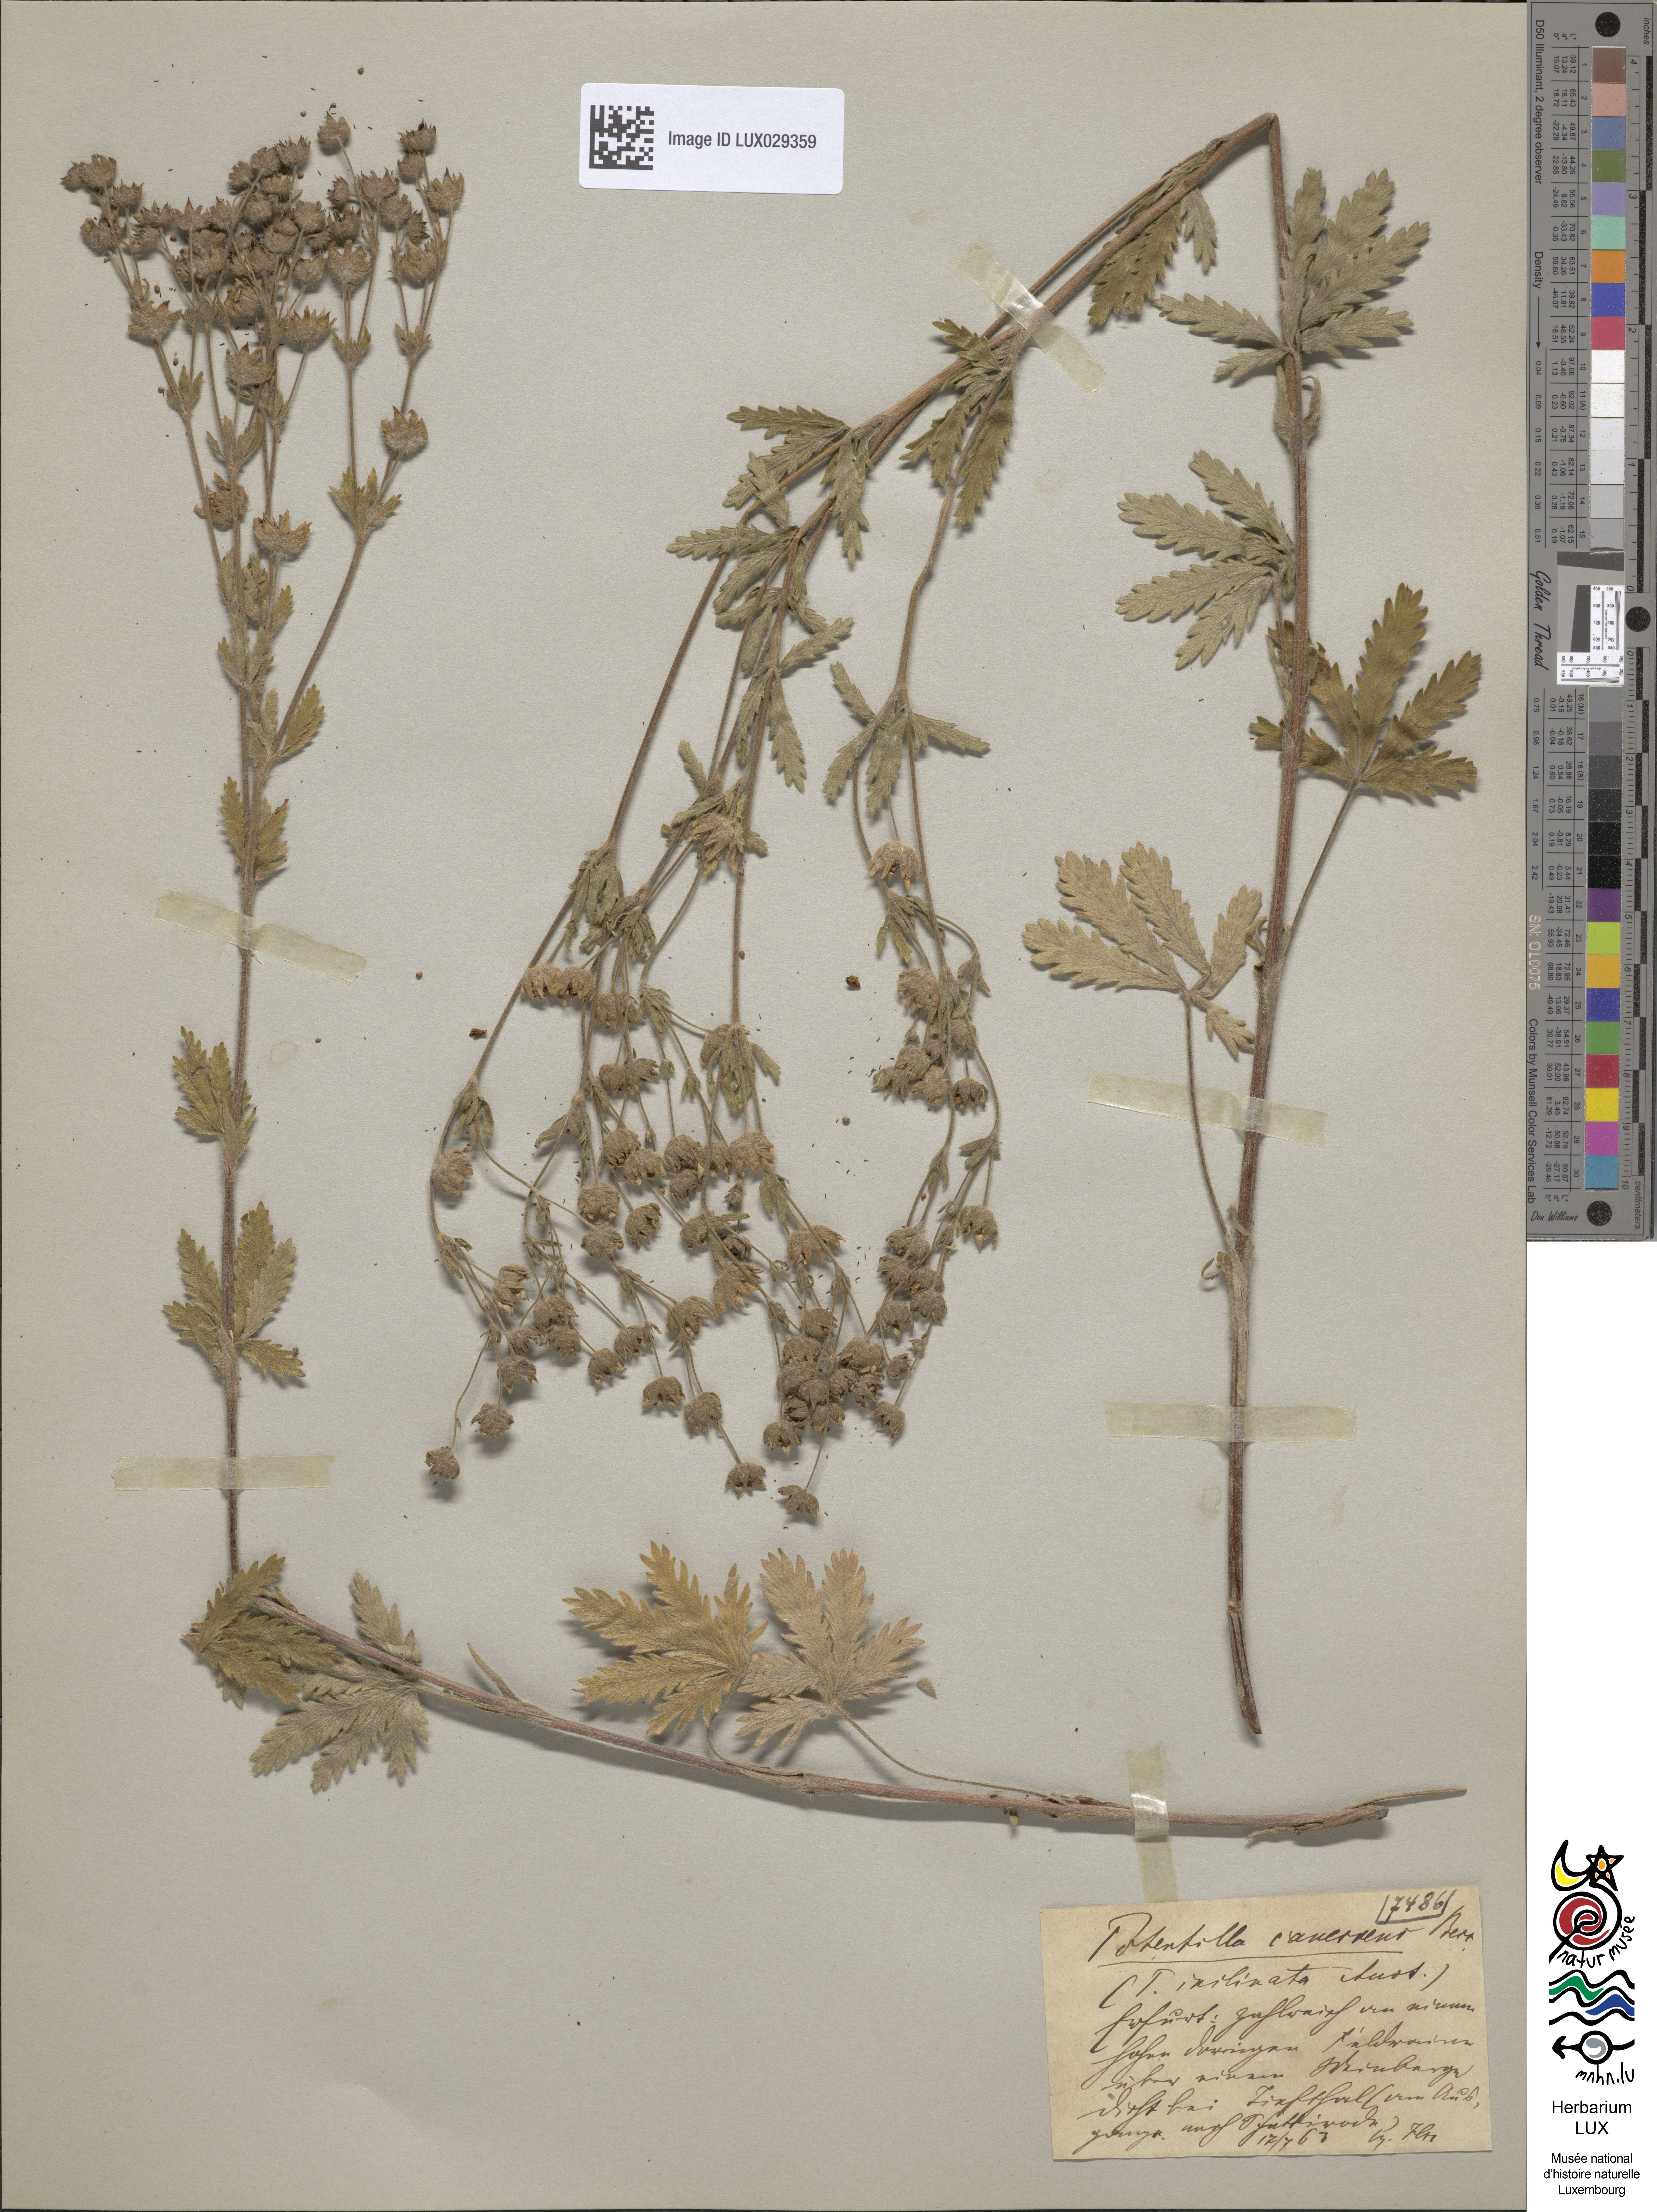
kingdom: Plantae
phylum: Tracheophyta
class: Magnoliopsida
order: Rosales
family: Rosaceae
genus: Potentilla
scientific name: Potentilla inclinata
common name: Grey cinquefoil
